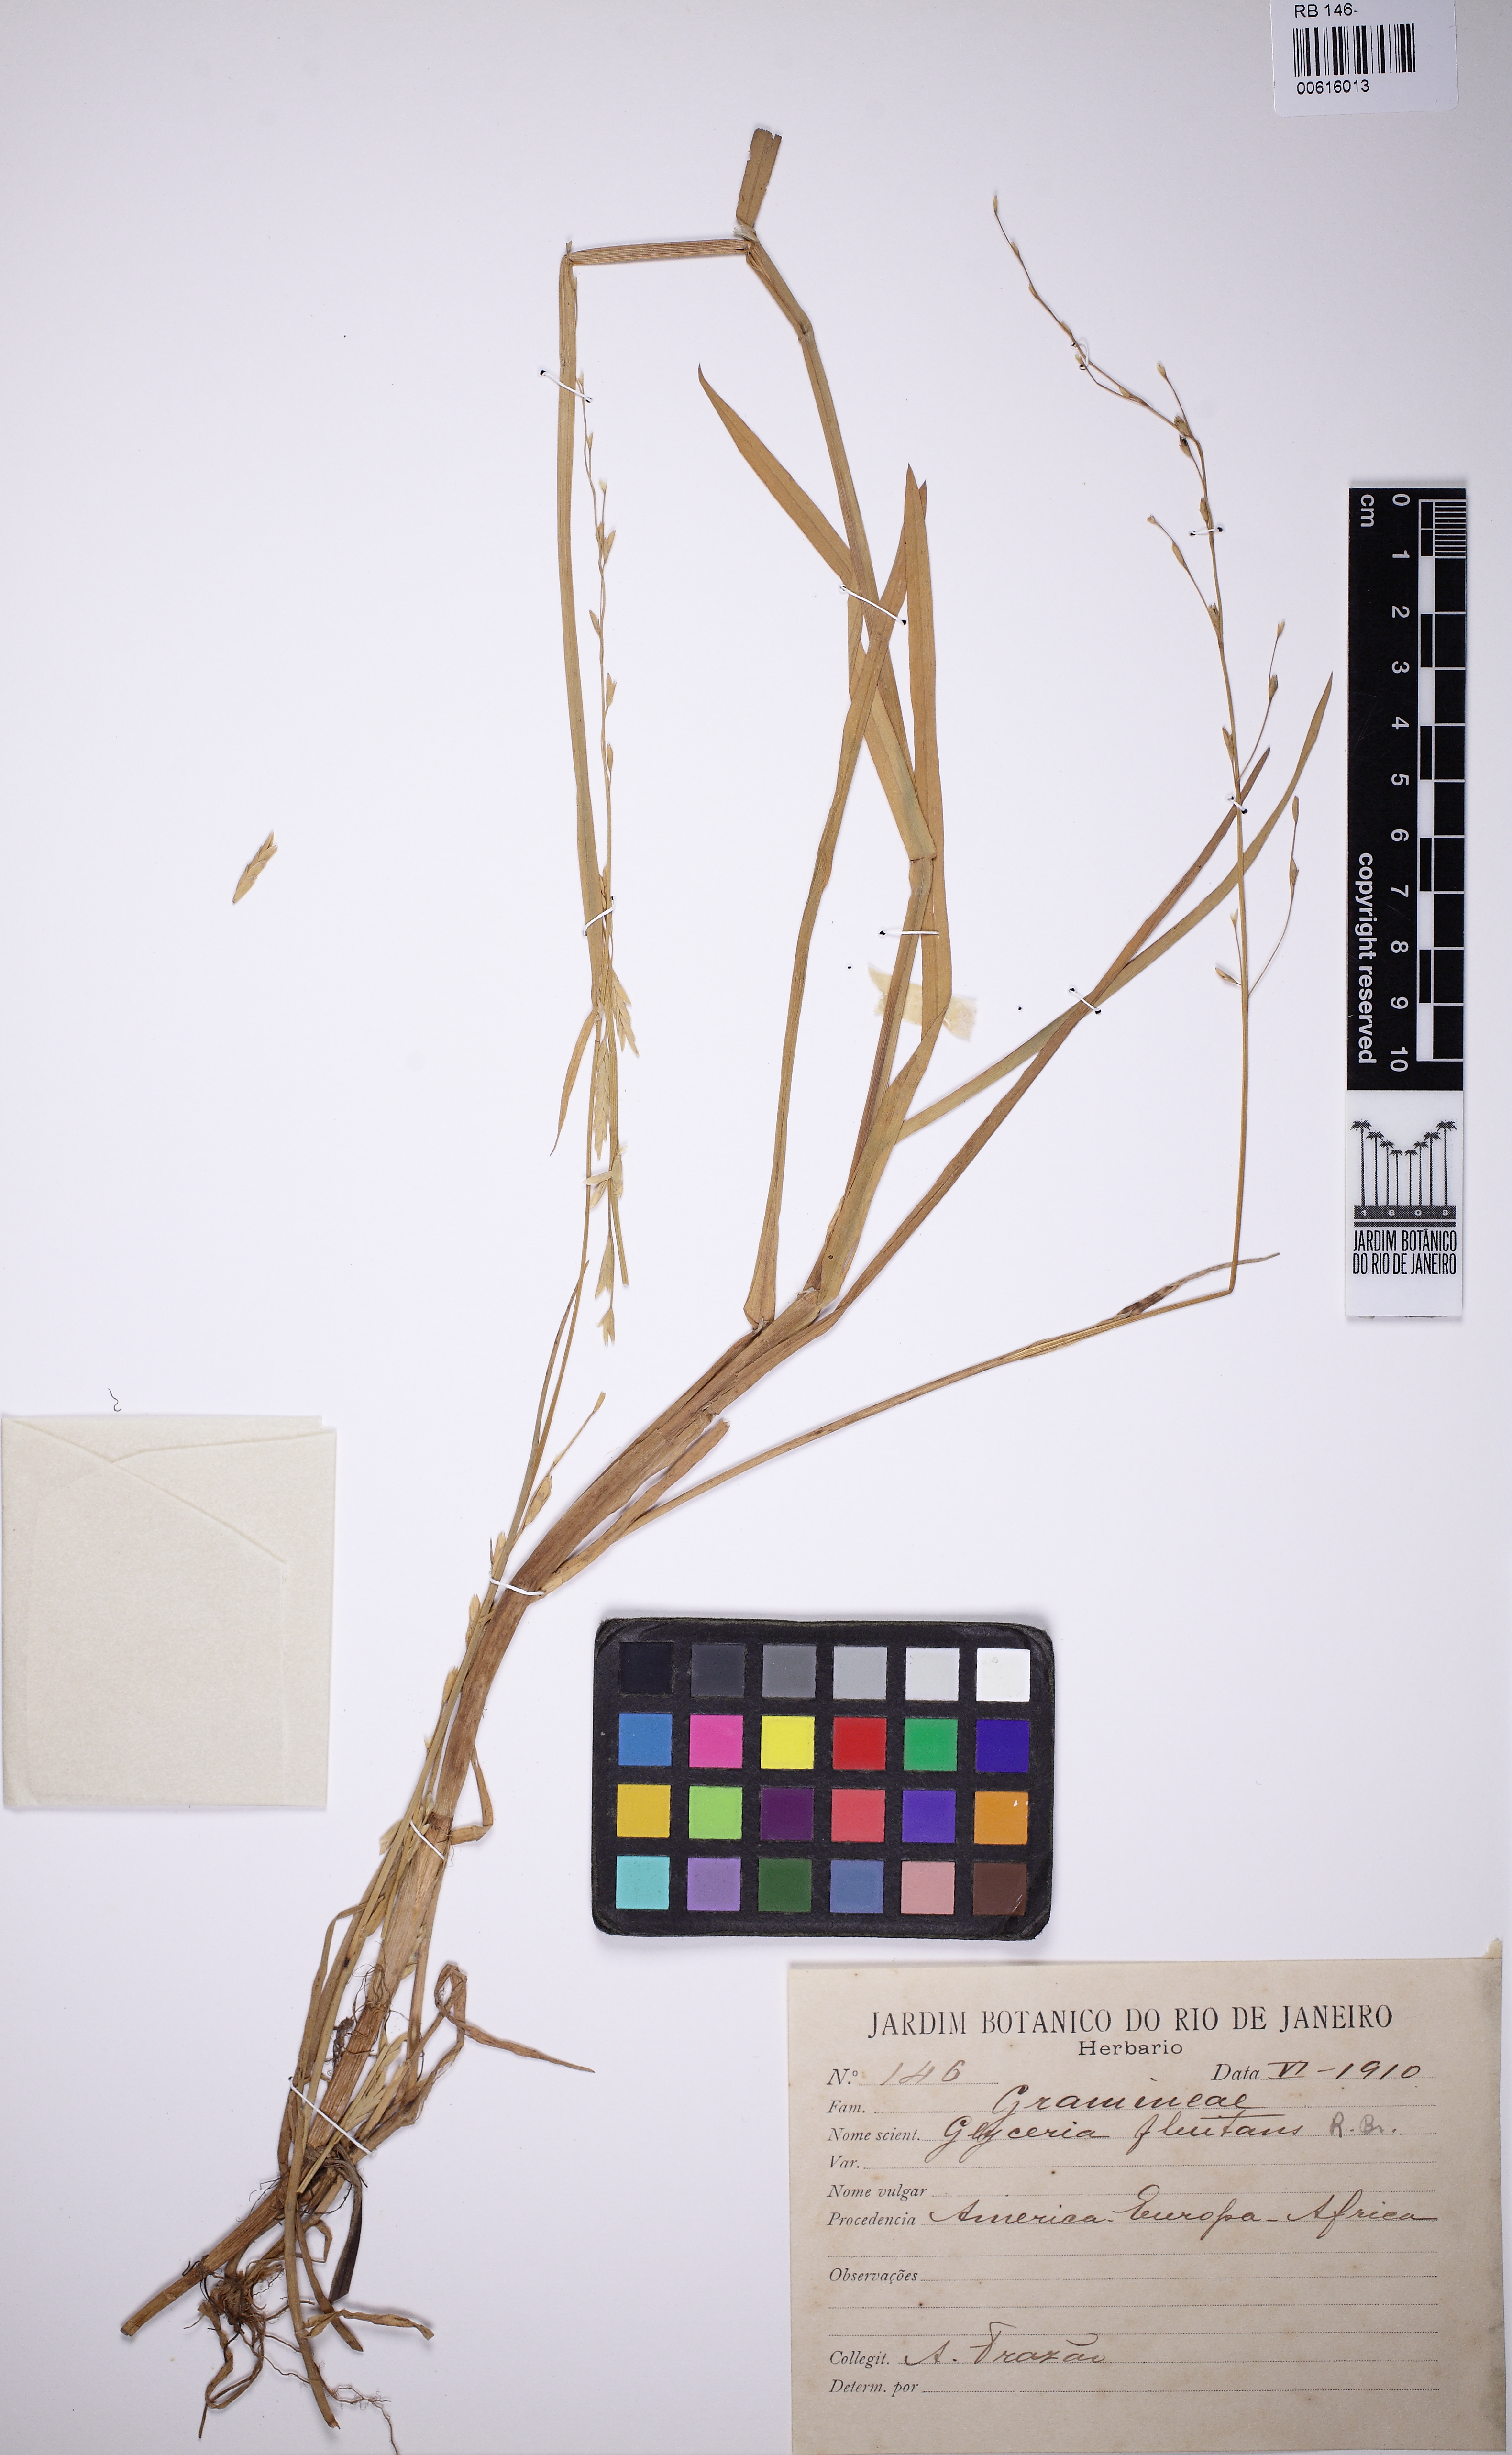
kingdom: Plantae
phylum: Tracheophyta
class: Liliopsida
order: Poales
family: Poaceae
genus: Glyceria
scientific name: Glyceria fluitans
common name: Floating sweet-grass
